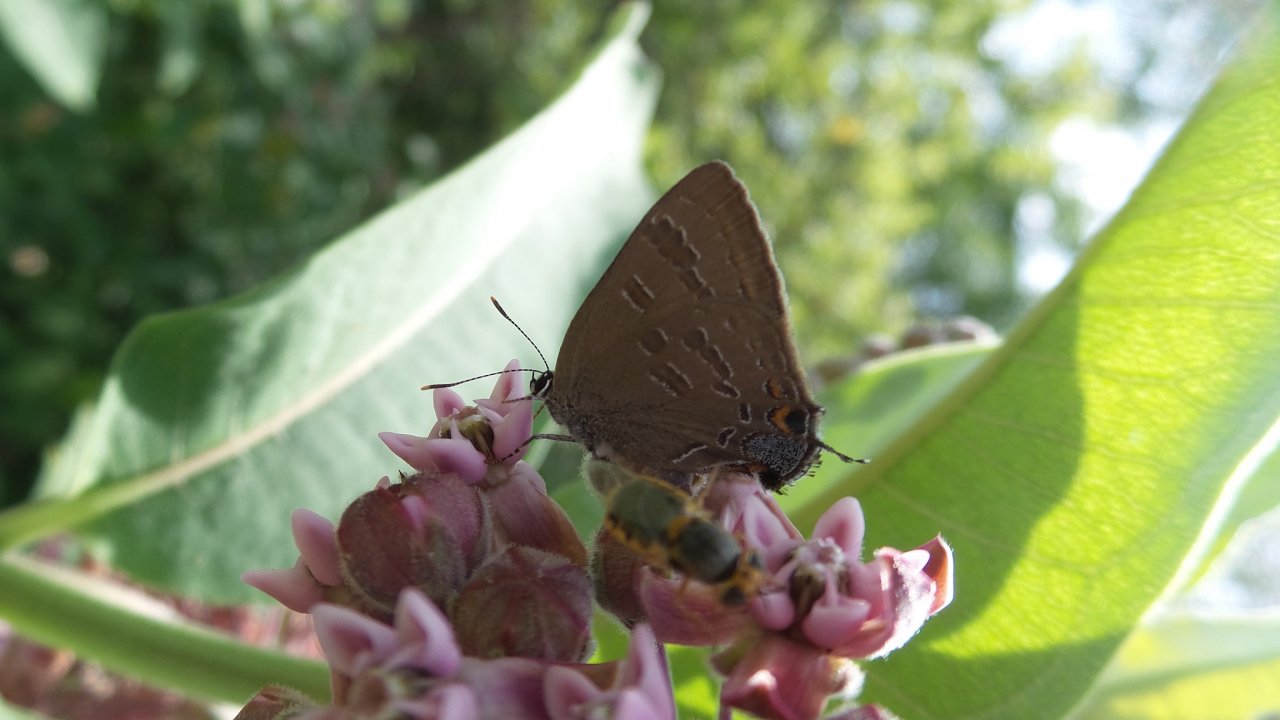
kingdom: Animalia
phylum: Arthropoda
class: Insecta
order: Lepidoptera
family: Lycaenidae
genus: Strymon
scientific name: Strymon caryaevorus
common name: Hickory Hairstreak
